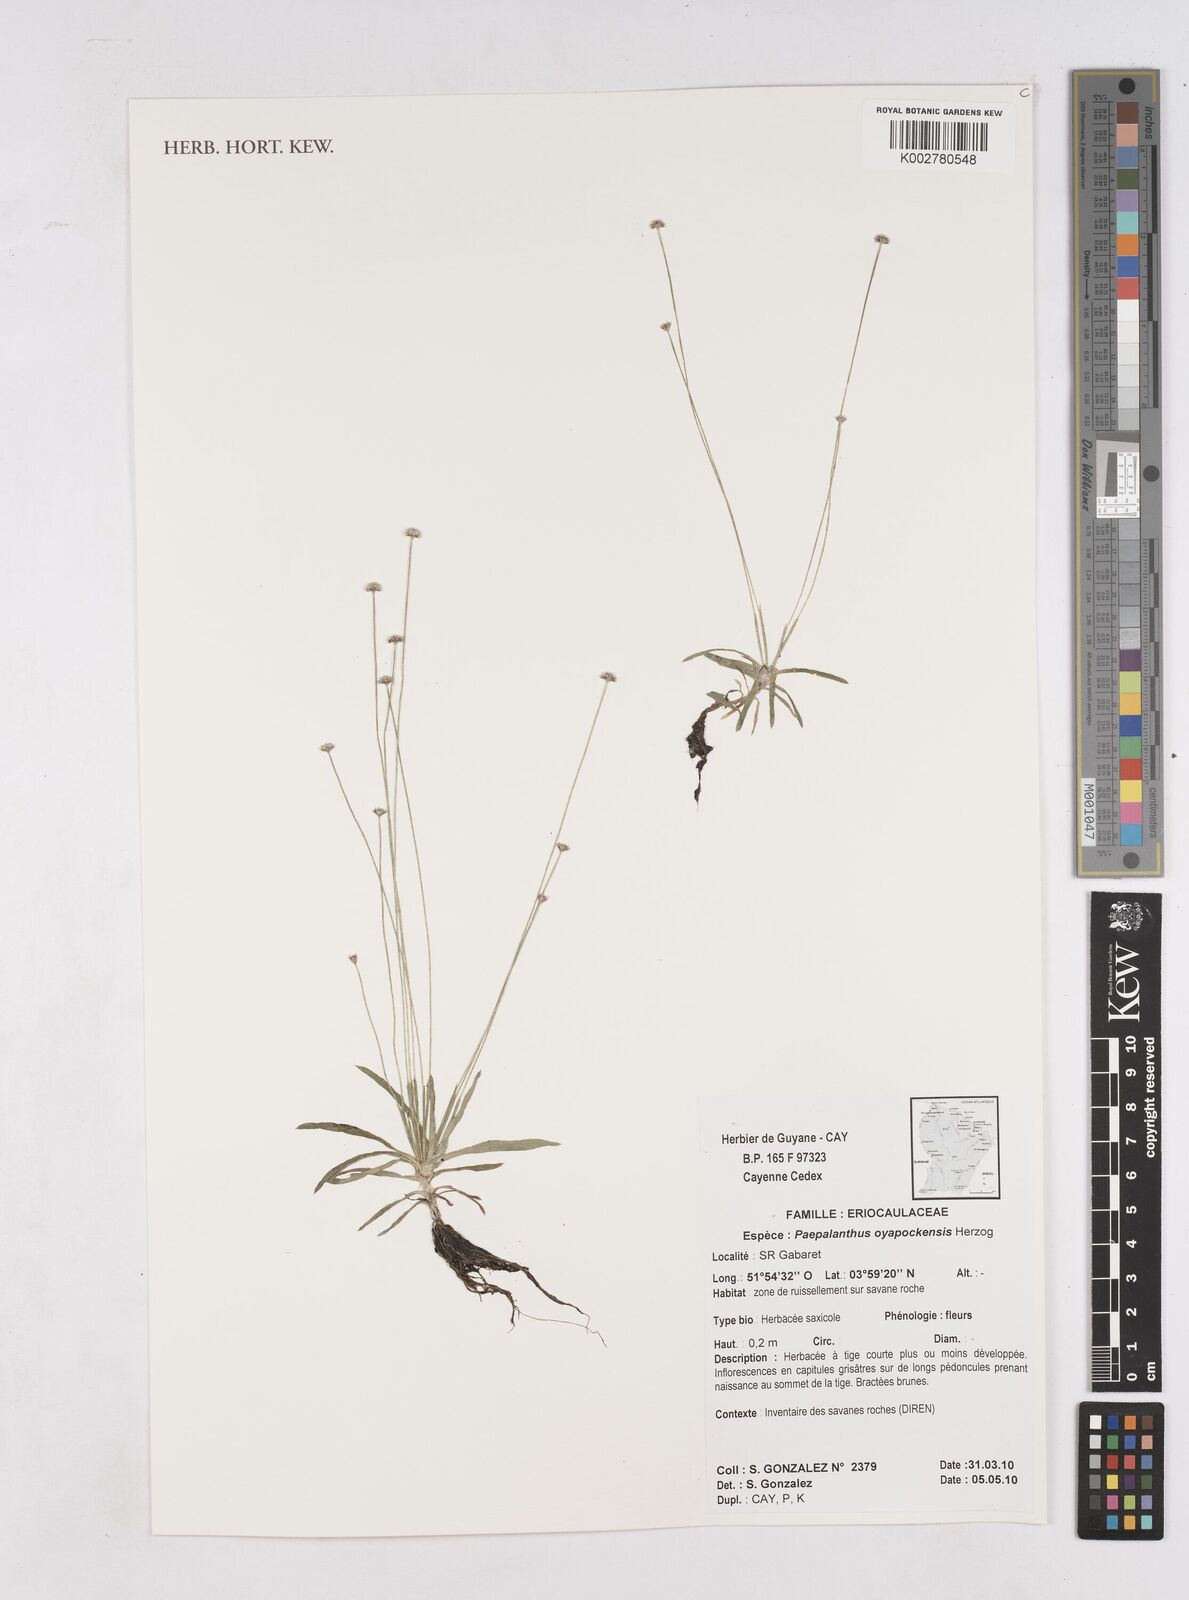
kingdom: Plantae
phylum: Tracheophyta
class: Liliopsida
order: Poales
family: Eriocaulaceae
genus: Paepalanthus
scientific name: Paepalanthus oyapockensis
